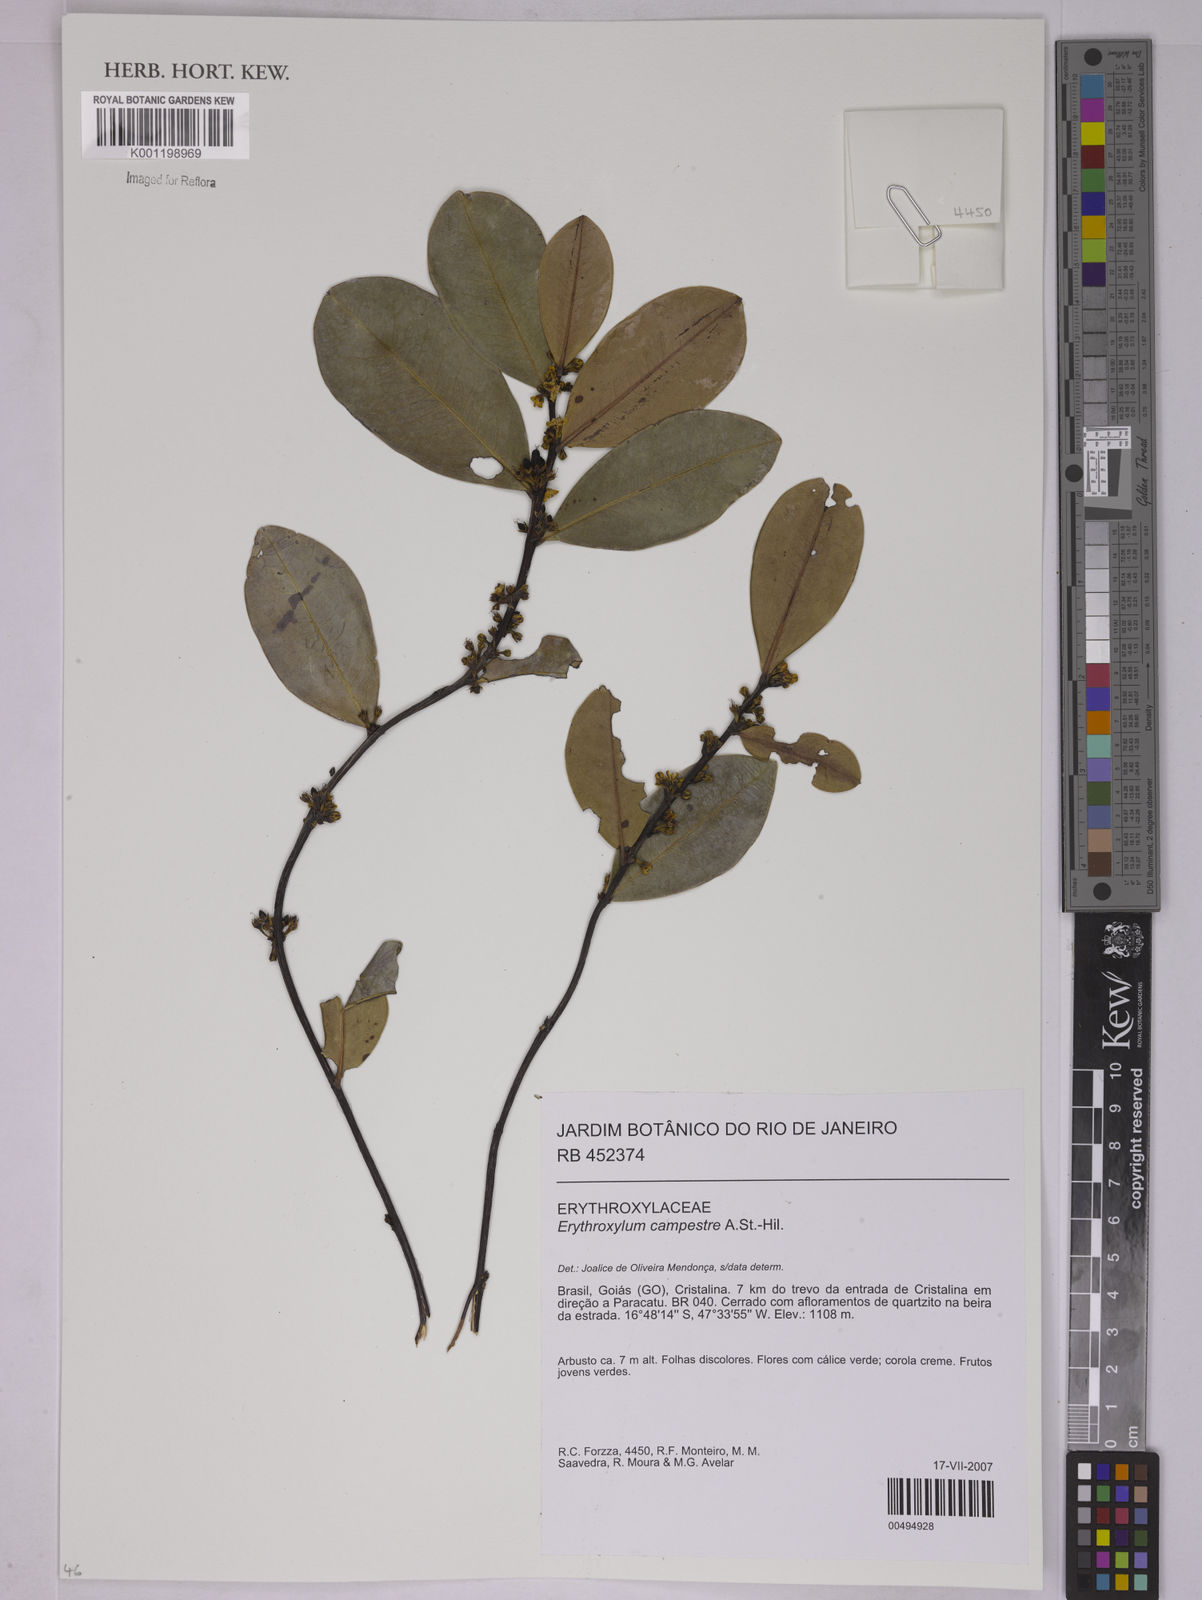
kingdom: Plantae
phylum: Tracheophyta
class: Magnoliopsida
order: Malpighiales
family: Erythroxylaceae
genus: Erythroxylum
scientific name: Erythroxylum campestre
